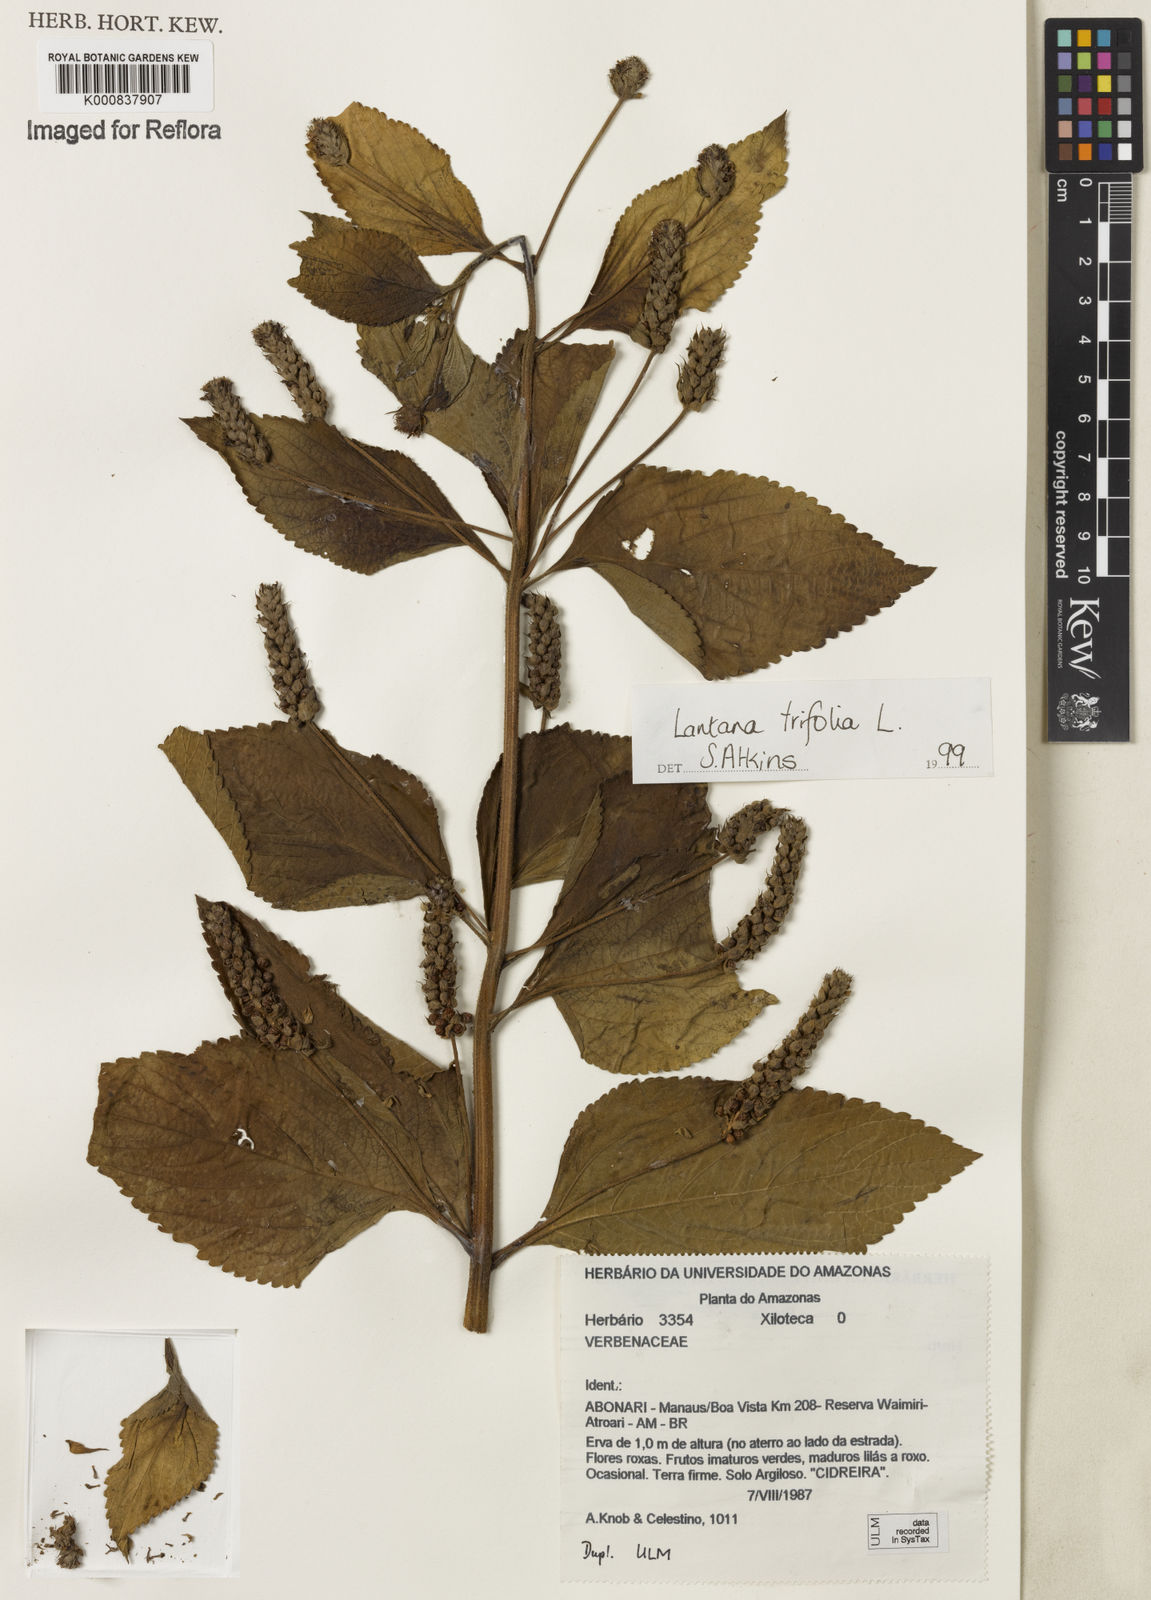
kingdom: Plantae
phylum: Tracheophyta
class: Magnoliopsida
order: Lamiales
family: Verbenaceae
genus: Lantana
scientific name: Lantana trifolia
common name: Sweet-sage
